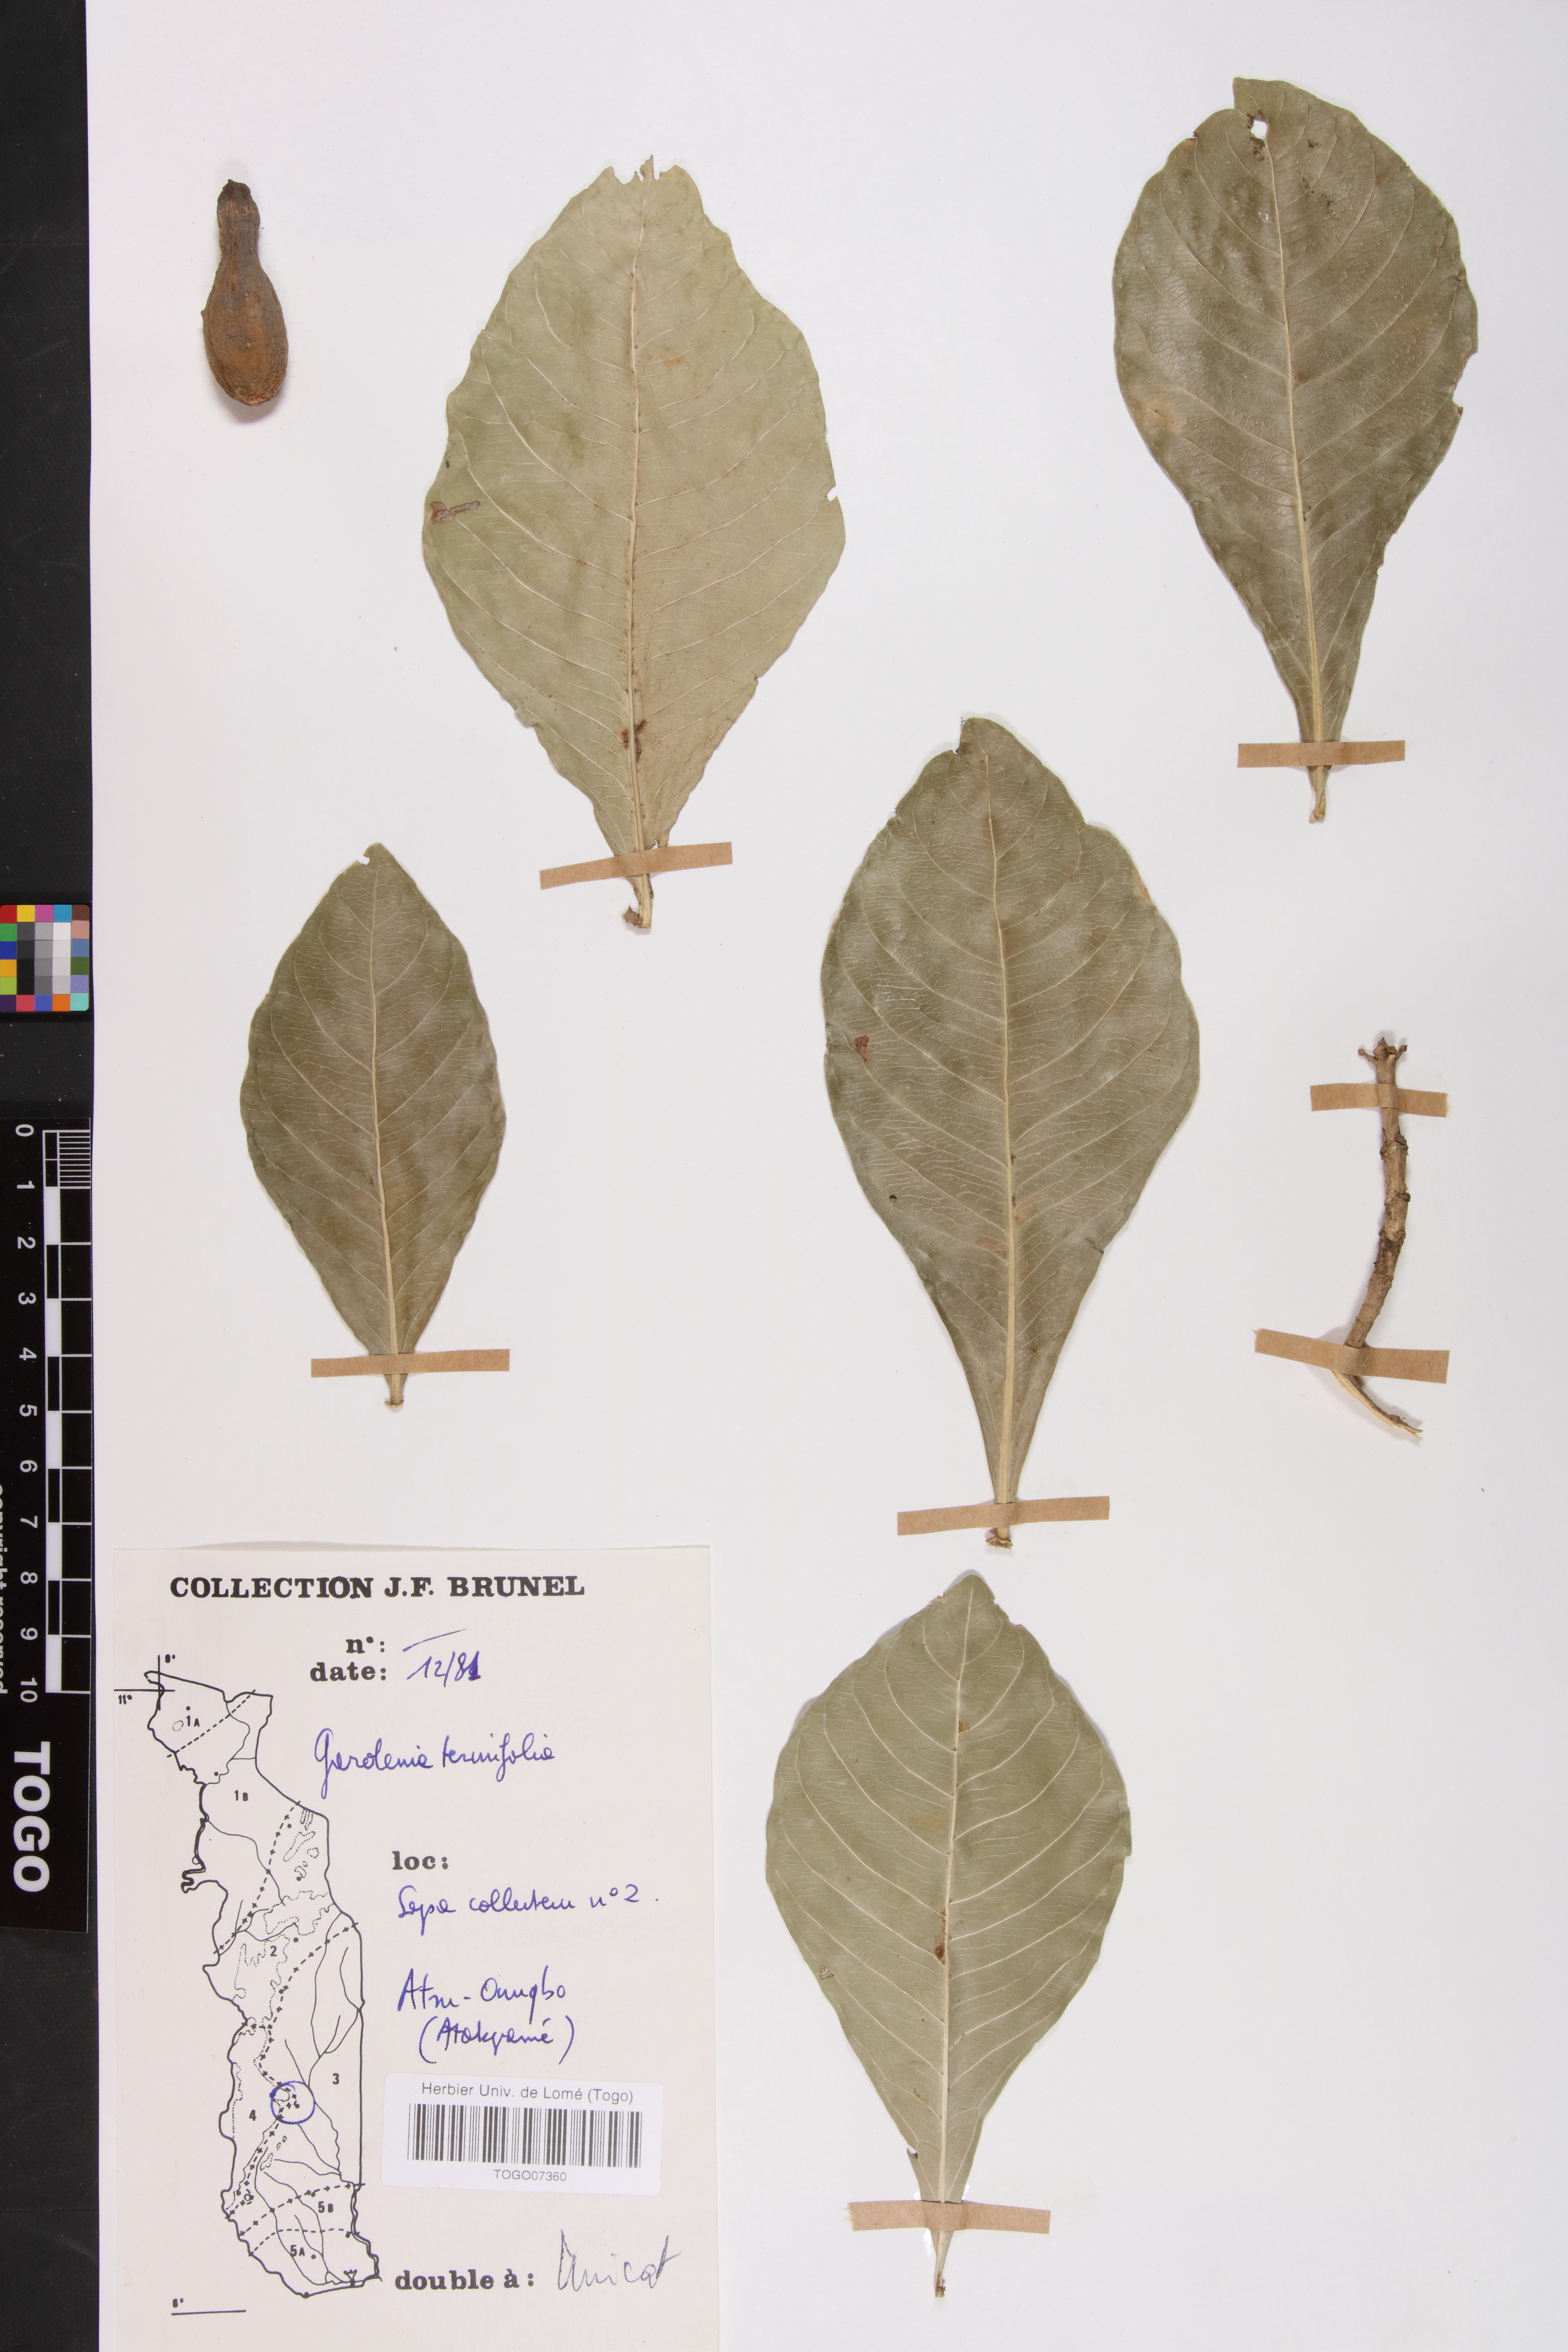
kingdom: Plantae
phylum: Tracheophyta
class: Magnoliopsida
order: Gentianales
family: Rubiaceae
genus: Gardenia
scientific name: Gardenia ternifolia
